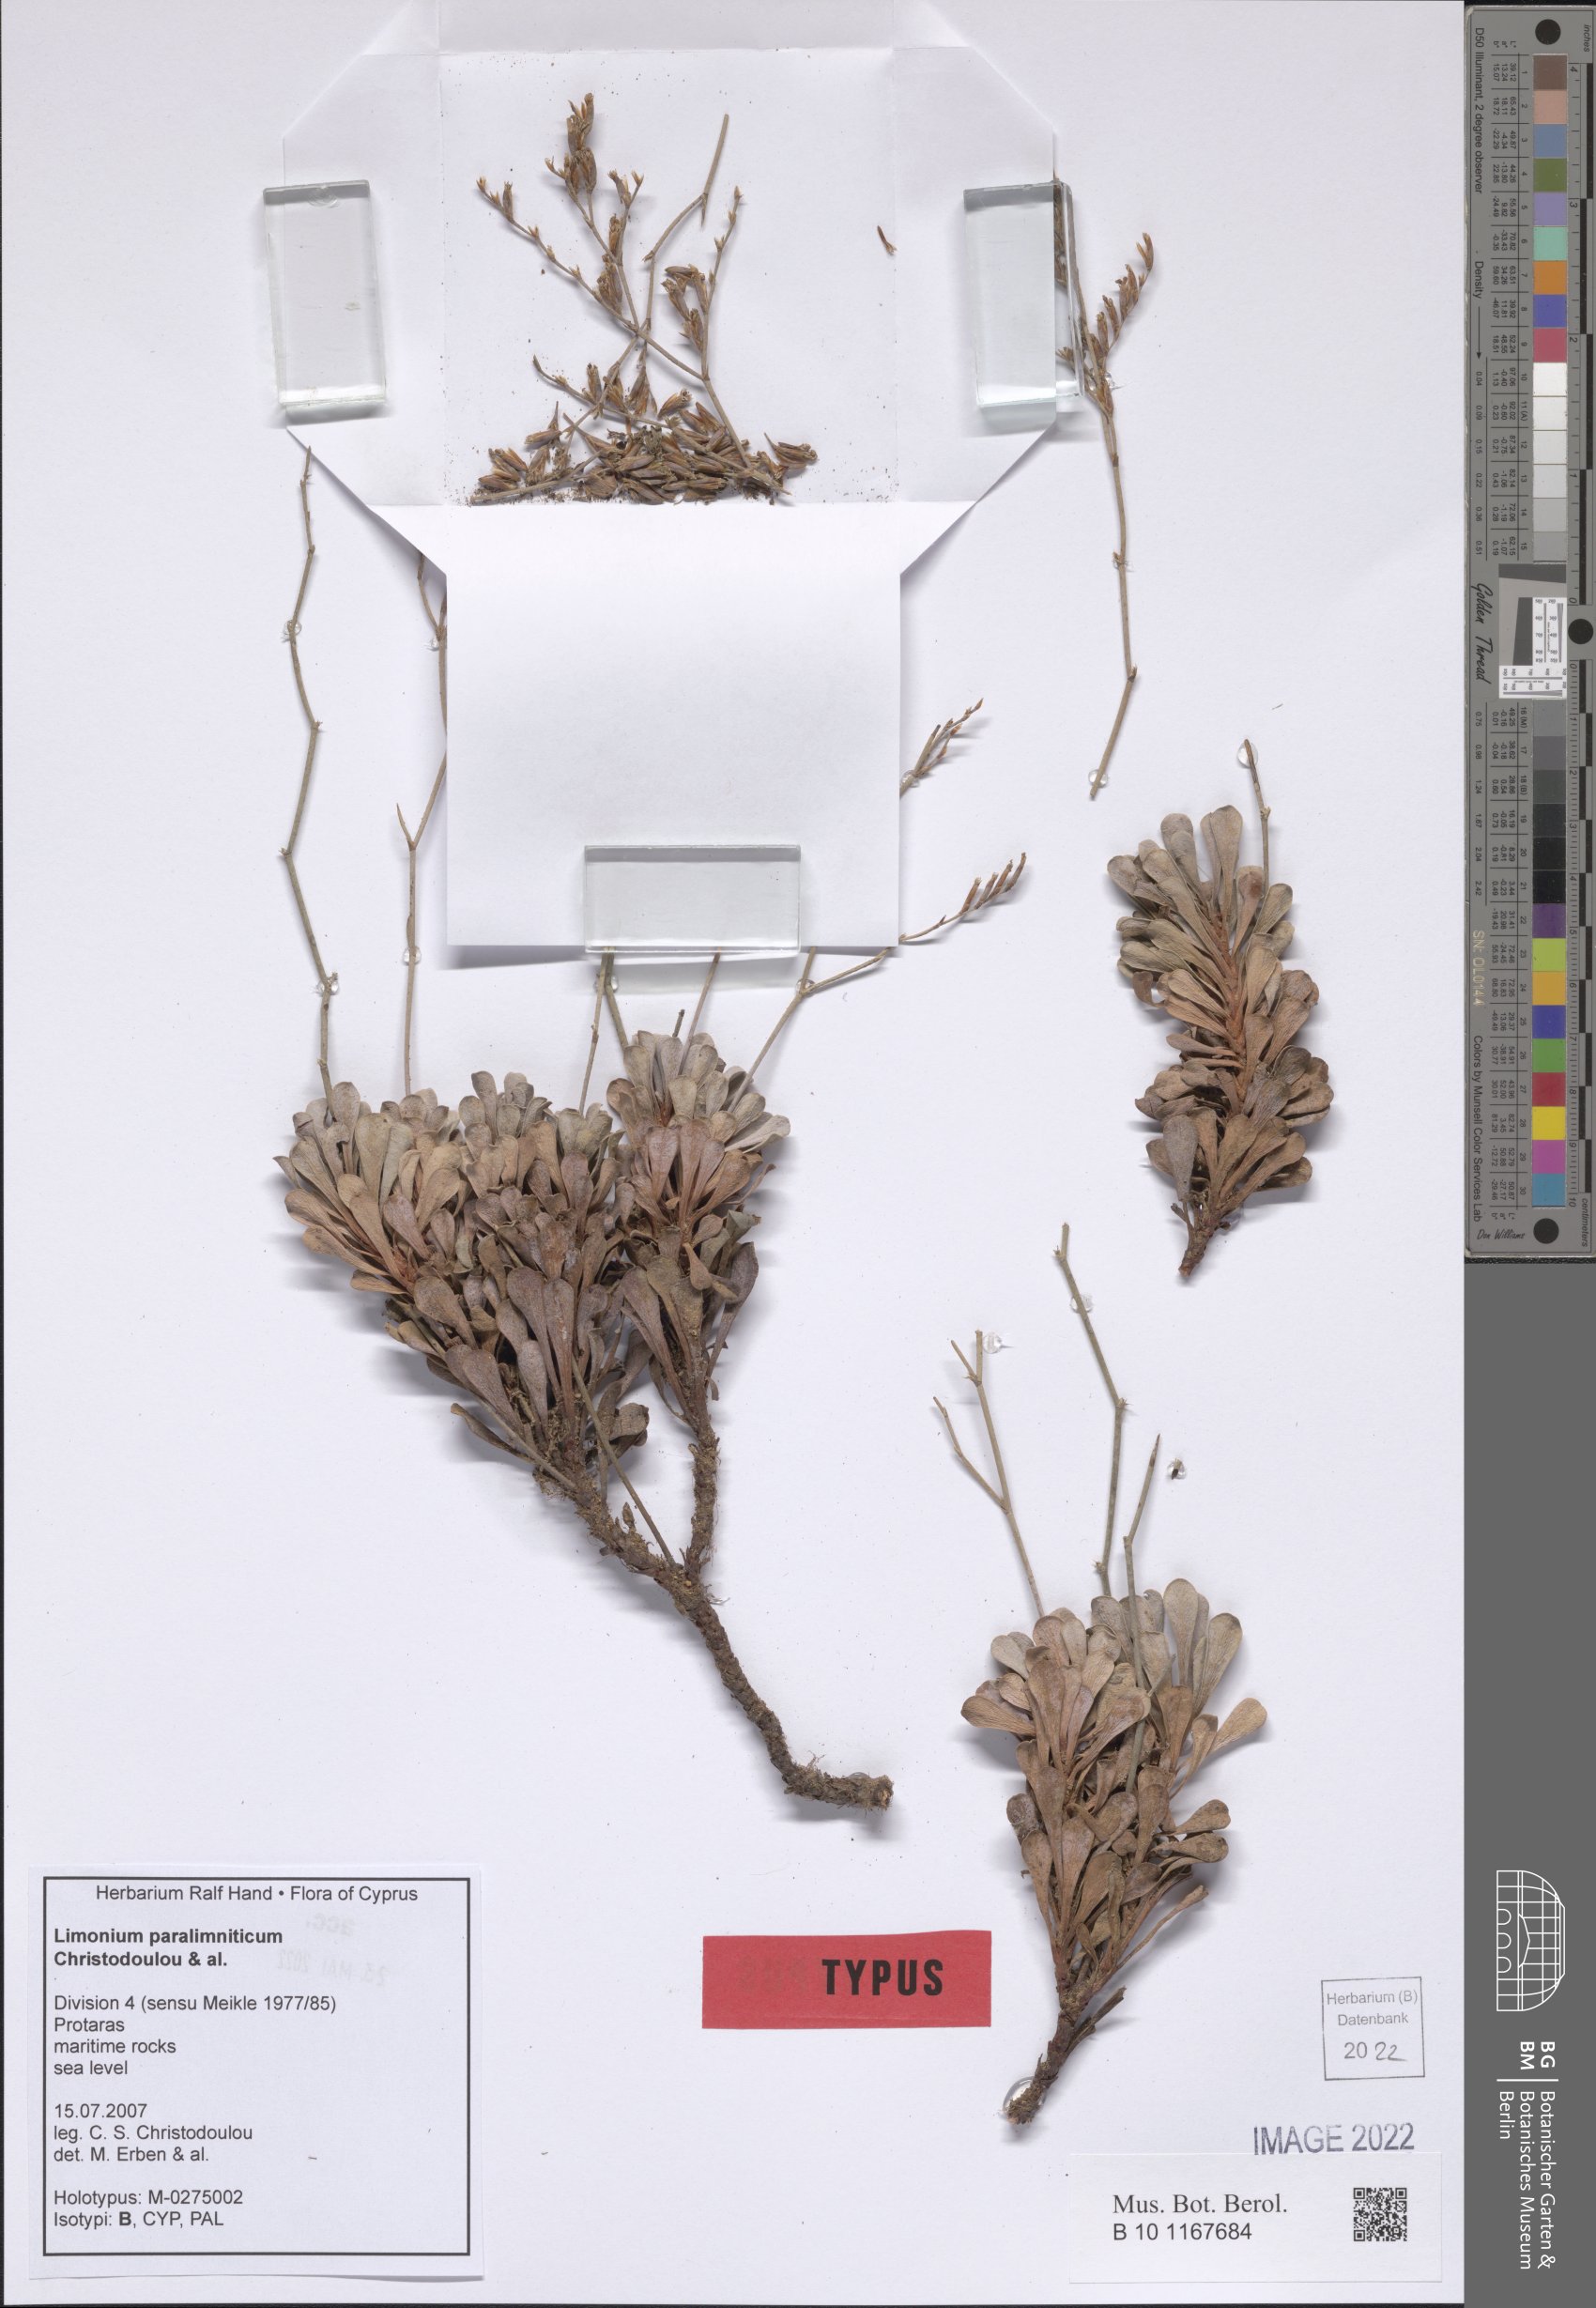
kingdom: Plantae
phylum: Tracheophyta
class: Magnoliopsida
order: Caryophyllales
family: Plumbaginaceae
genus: Limonium
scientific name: Limonium paralimniticum
